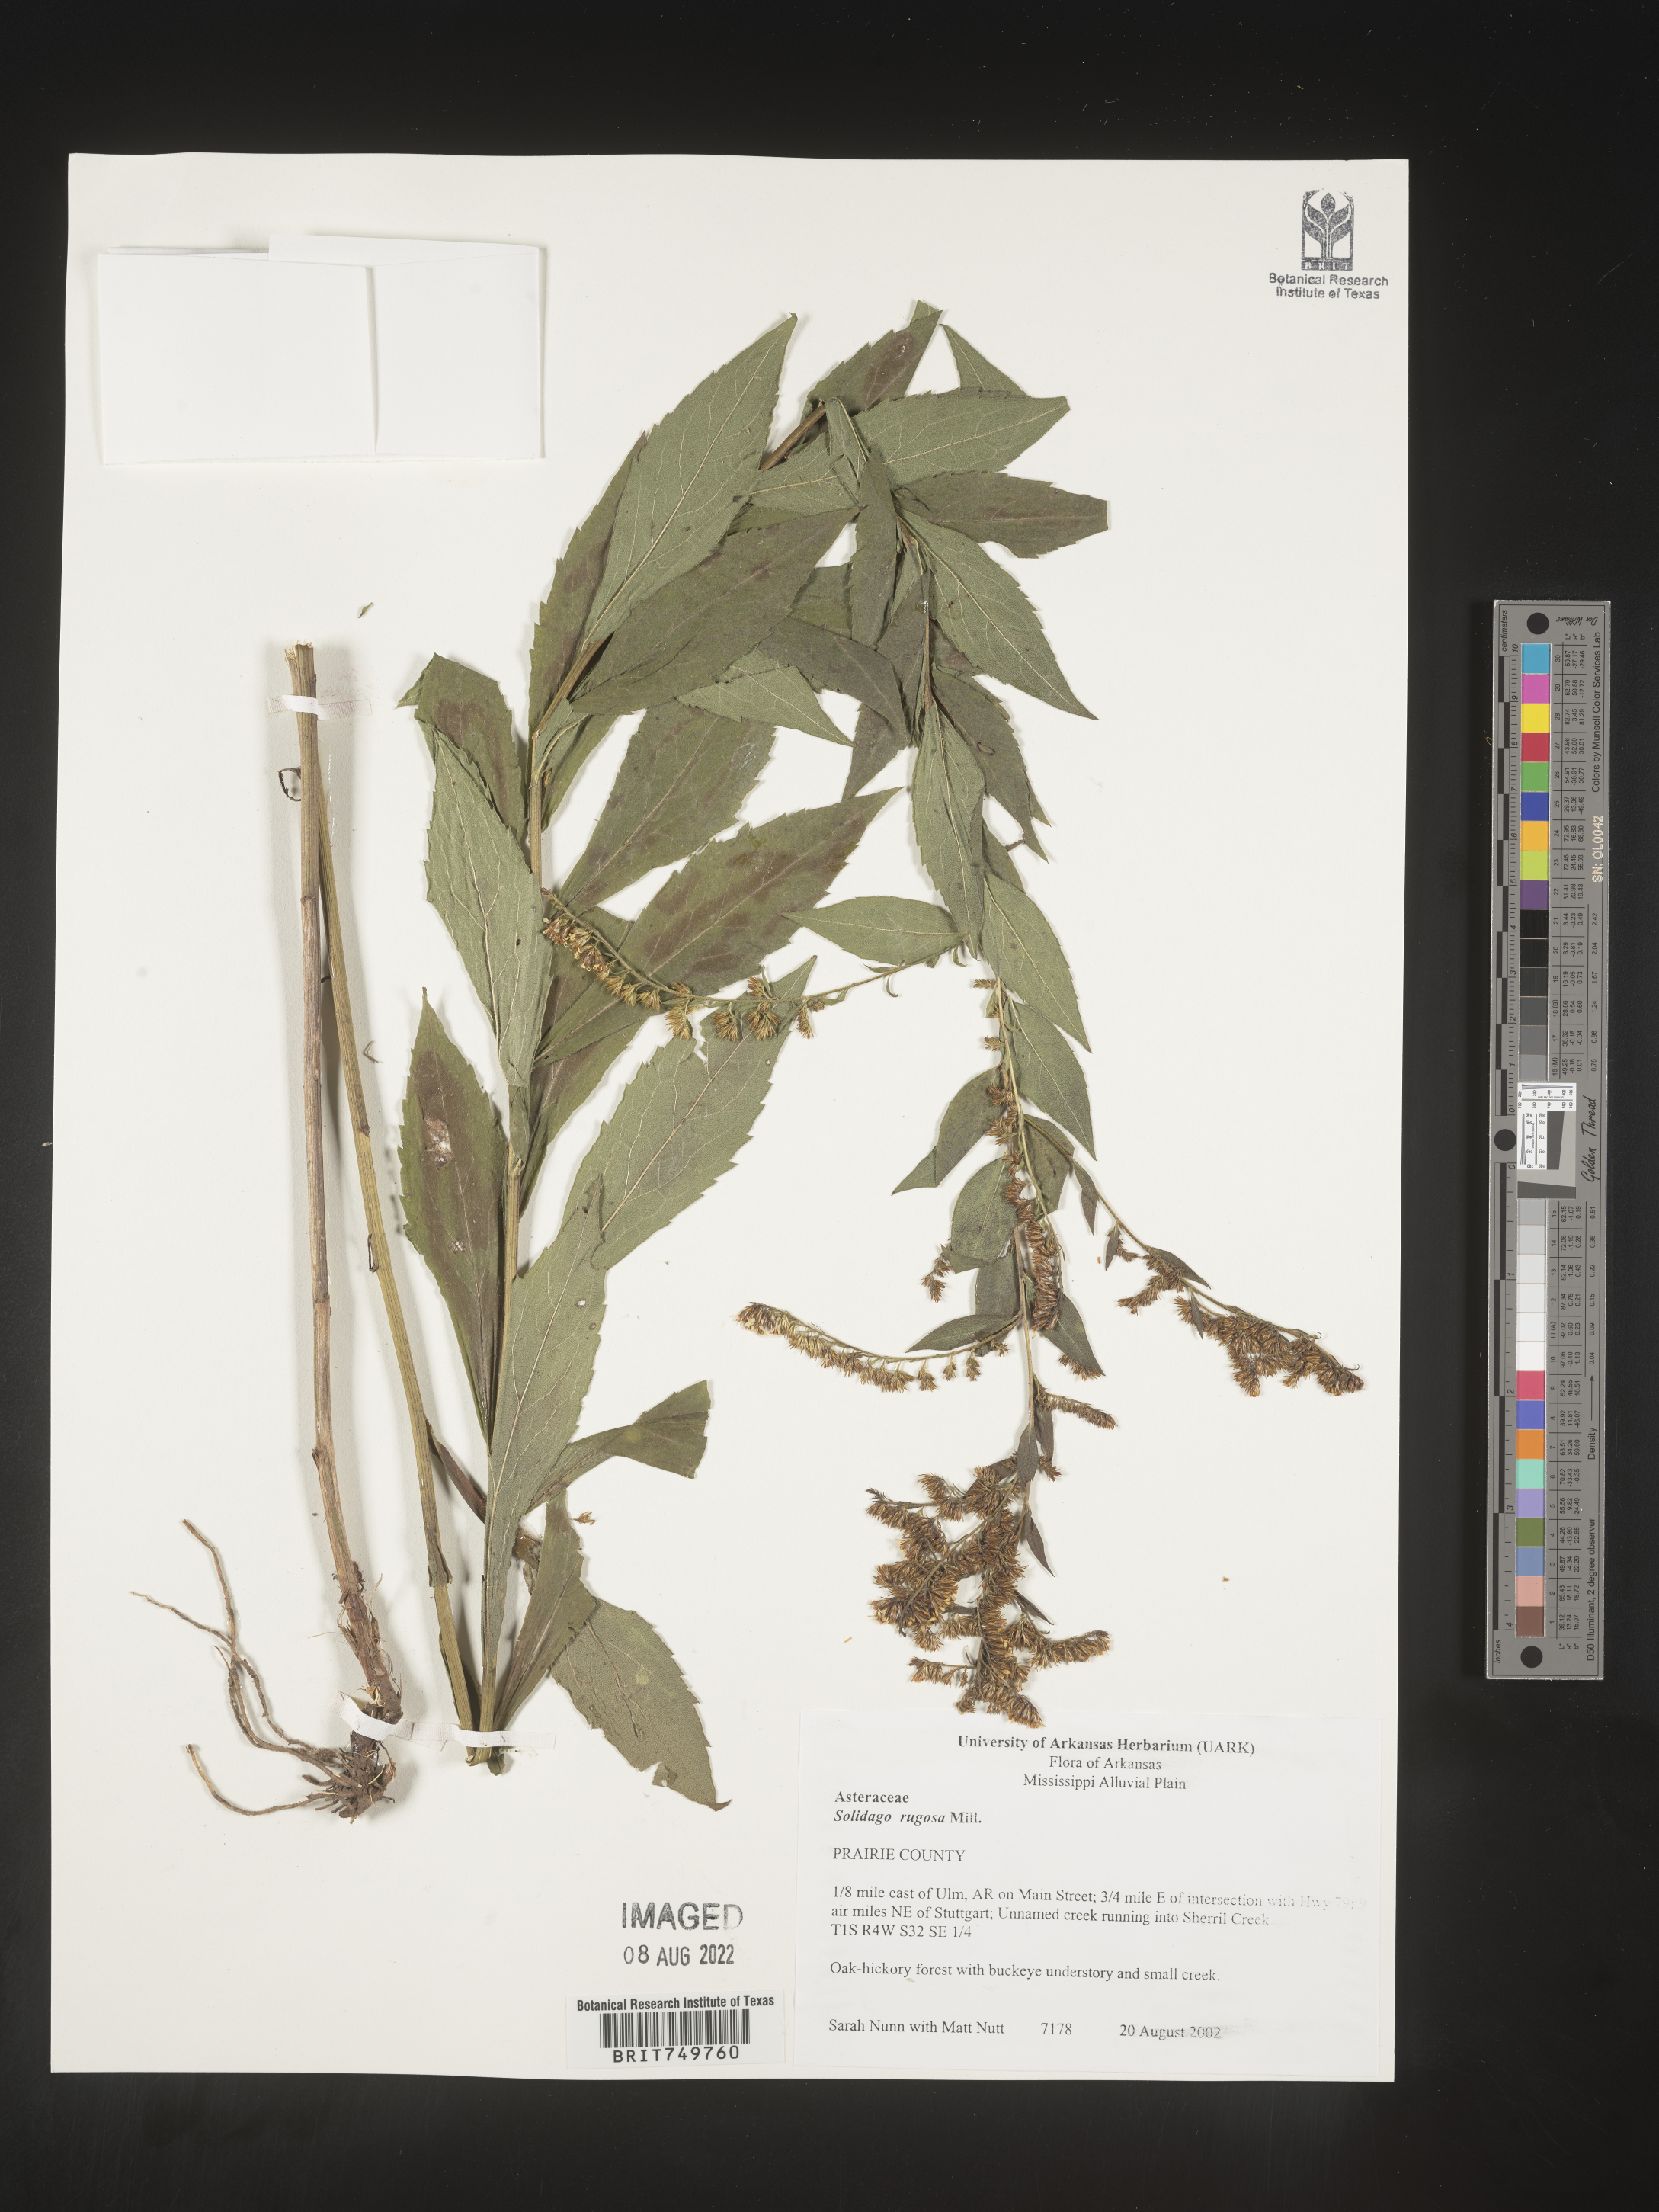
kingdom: Plantae
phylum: Tracheophyta
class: Magnoliopsida
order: Asterales
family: Asteraceae
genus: Solidago
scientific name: Solidago ulmifolia
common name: Elm-leaf goldenrod
